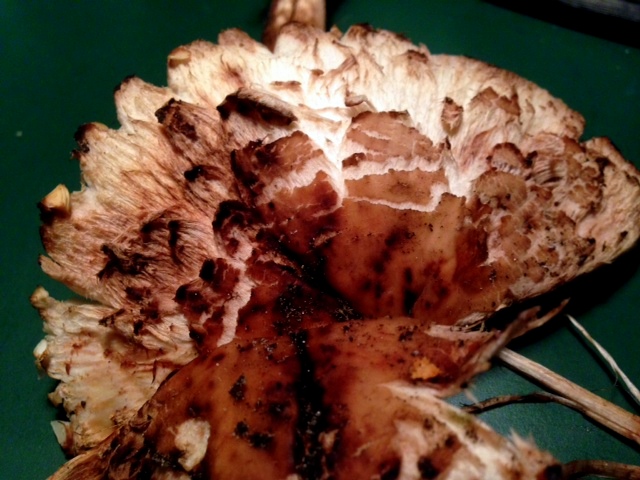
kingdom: Fungi
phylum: Basidiomycota
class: Agaricomycetes
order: Agaricales
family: Agaricaceae
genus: Chlorophyllum
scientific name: Chlorophyllum brunneum
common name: giftig rabarberhat
